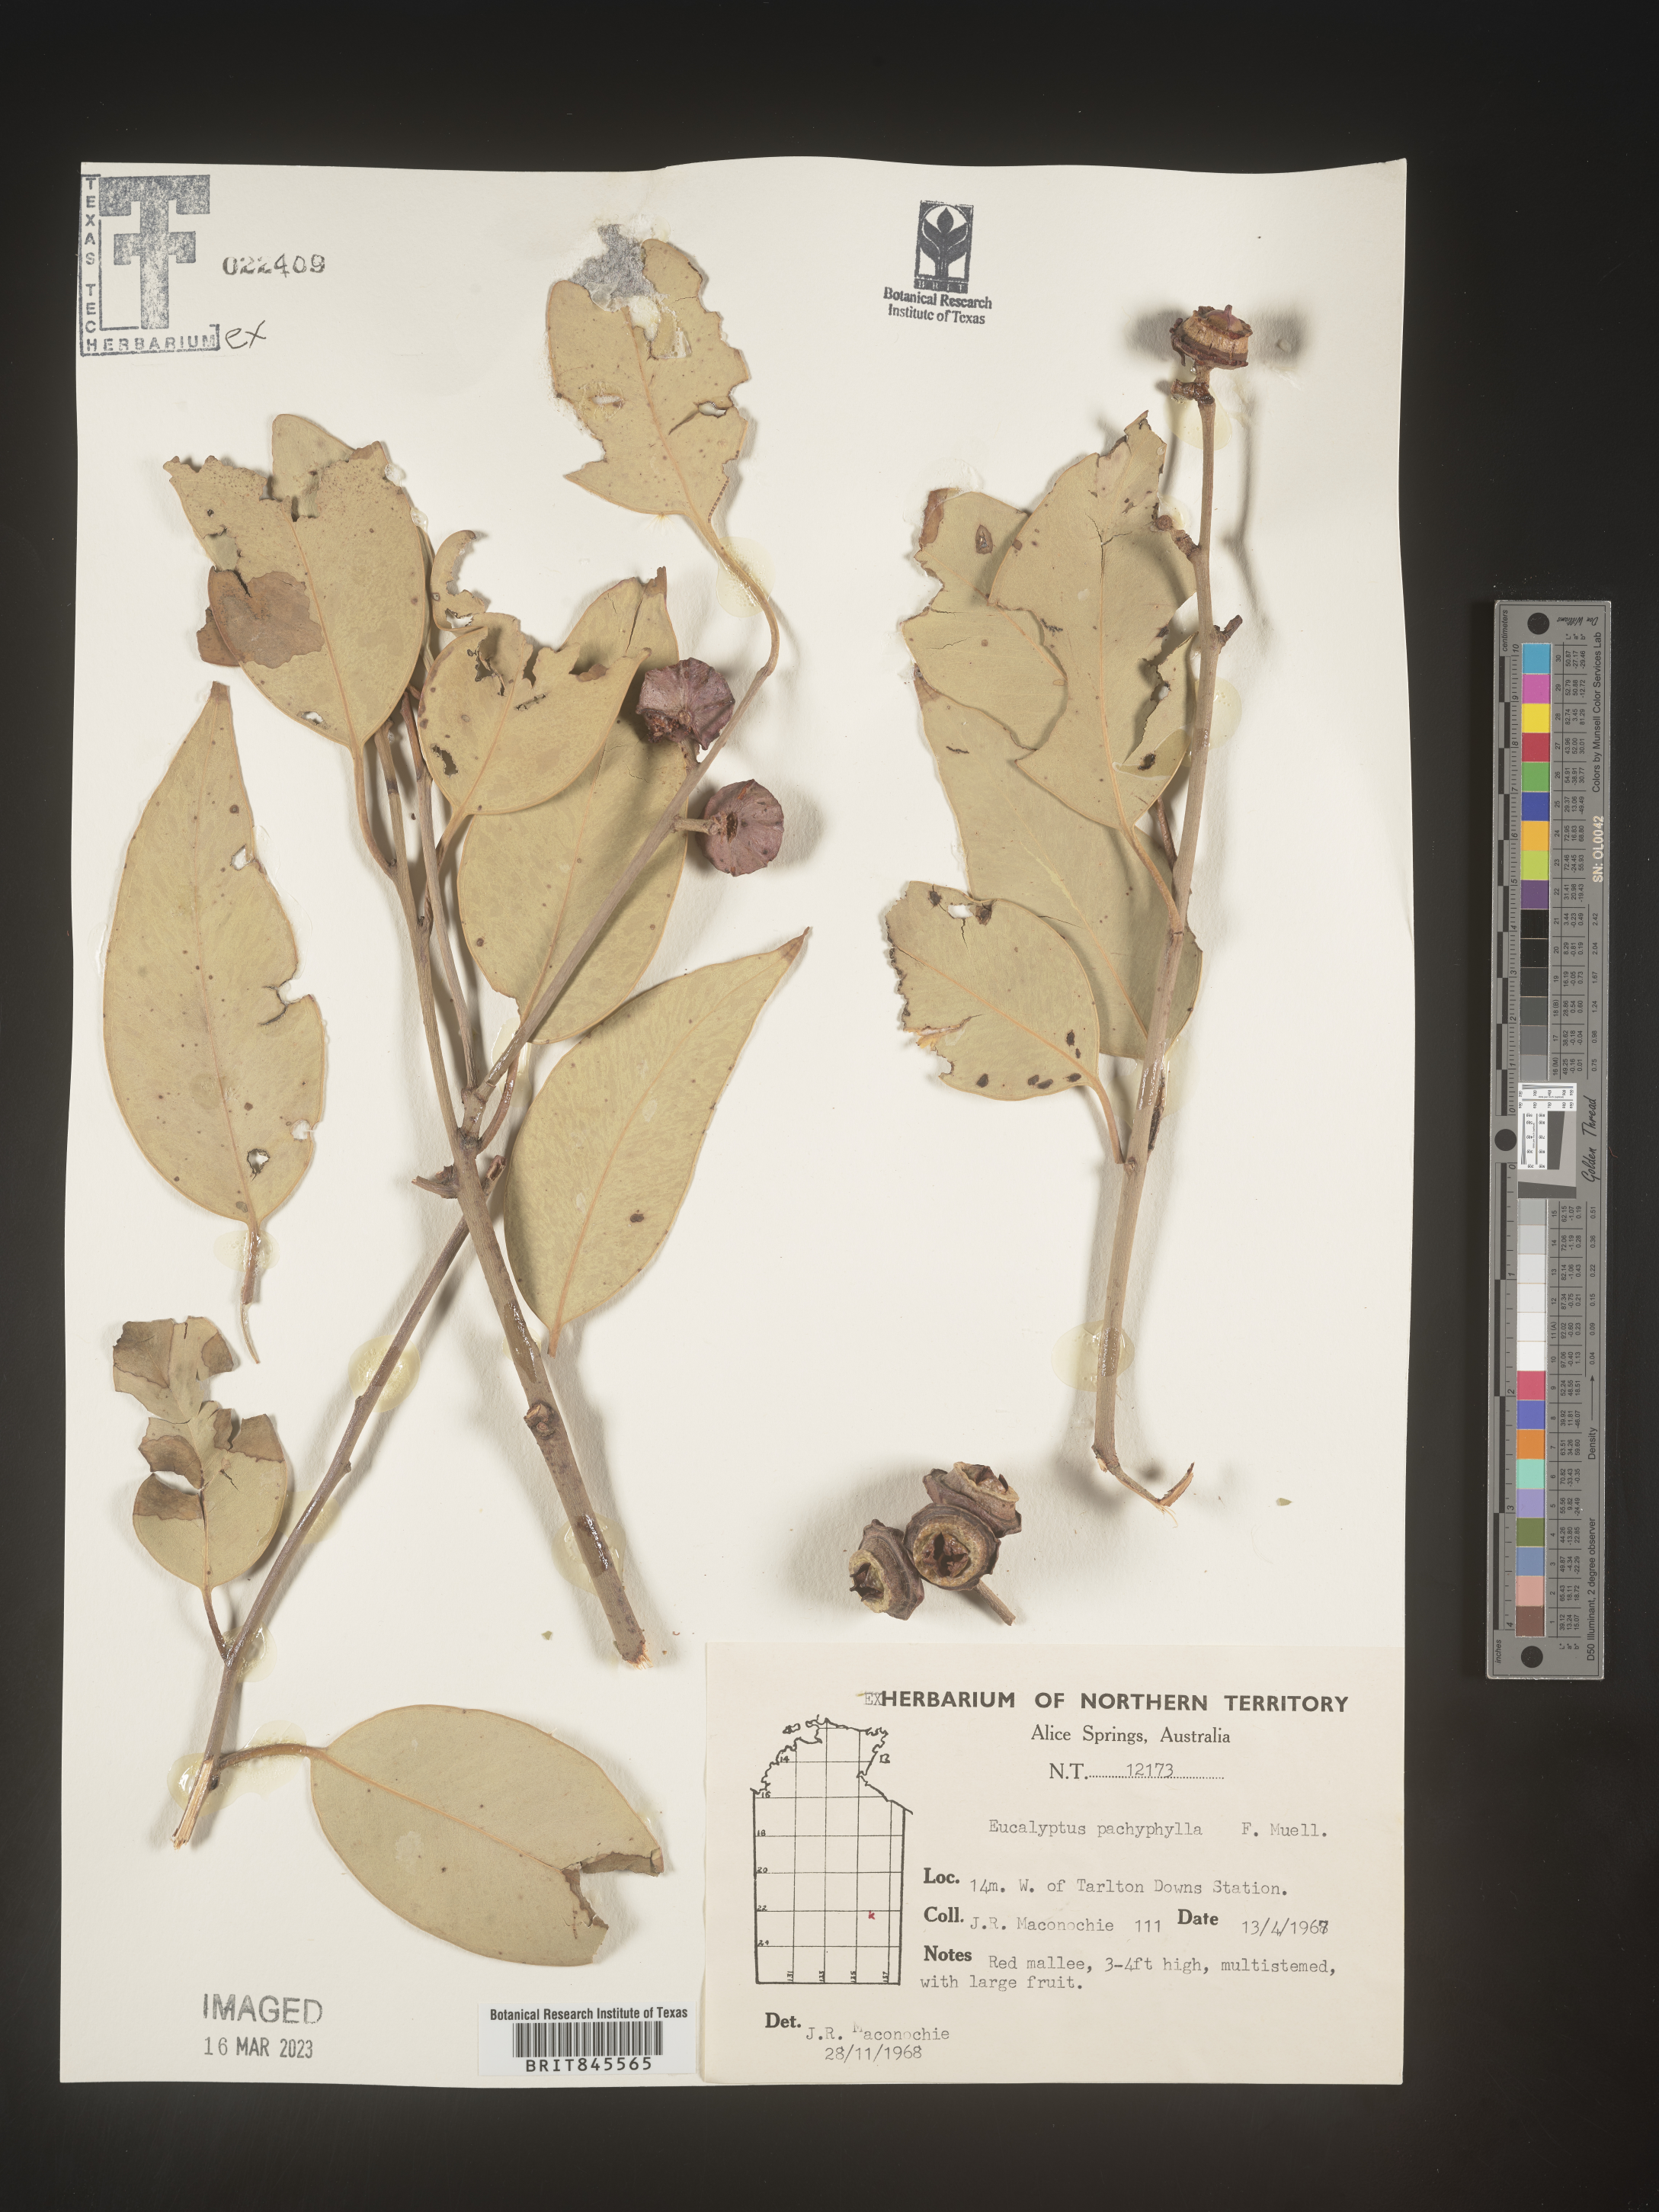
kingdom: Plantae
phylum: Tracheophyta
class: Magnoliopsida
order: Myrtales
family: Myrtaceae
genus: Eucalyptus
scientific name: Eucalyptus
